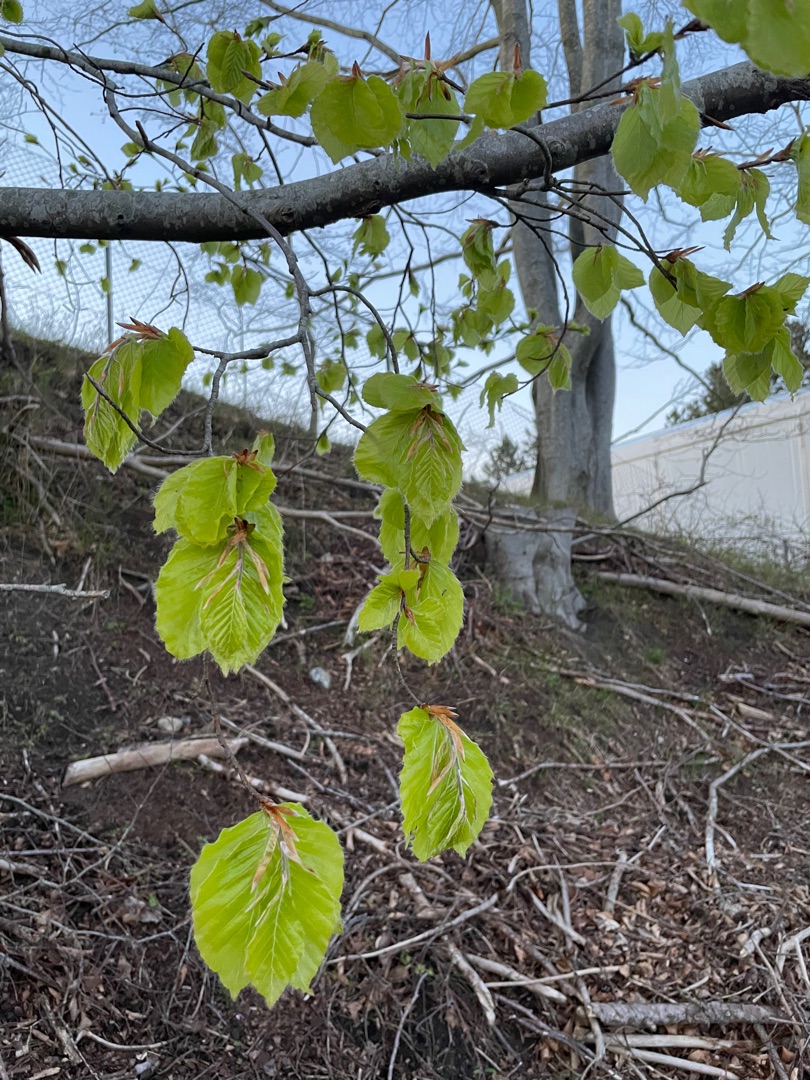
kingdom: Plantae
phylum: Tracheophyta
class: Magnoliopsida
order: Fagales
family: Fagaceae
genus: Fagus
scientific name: Fagus sylvatica
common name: Bøg
